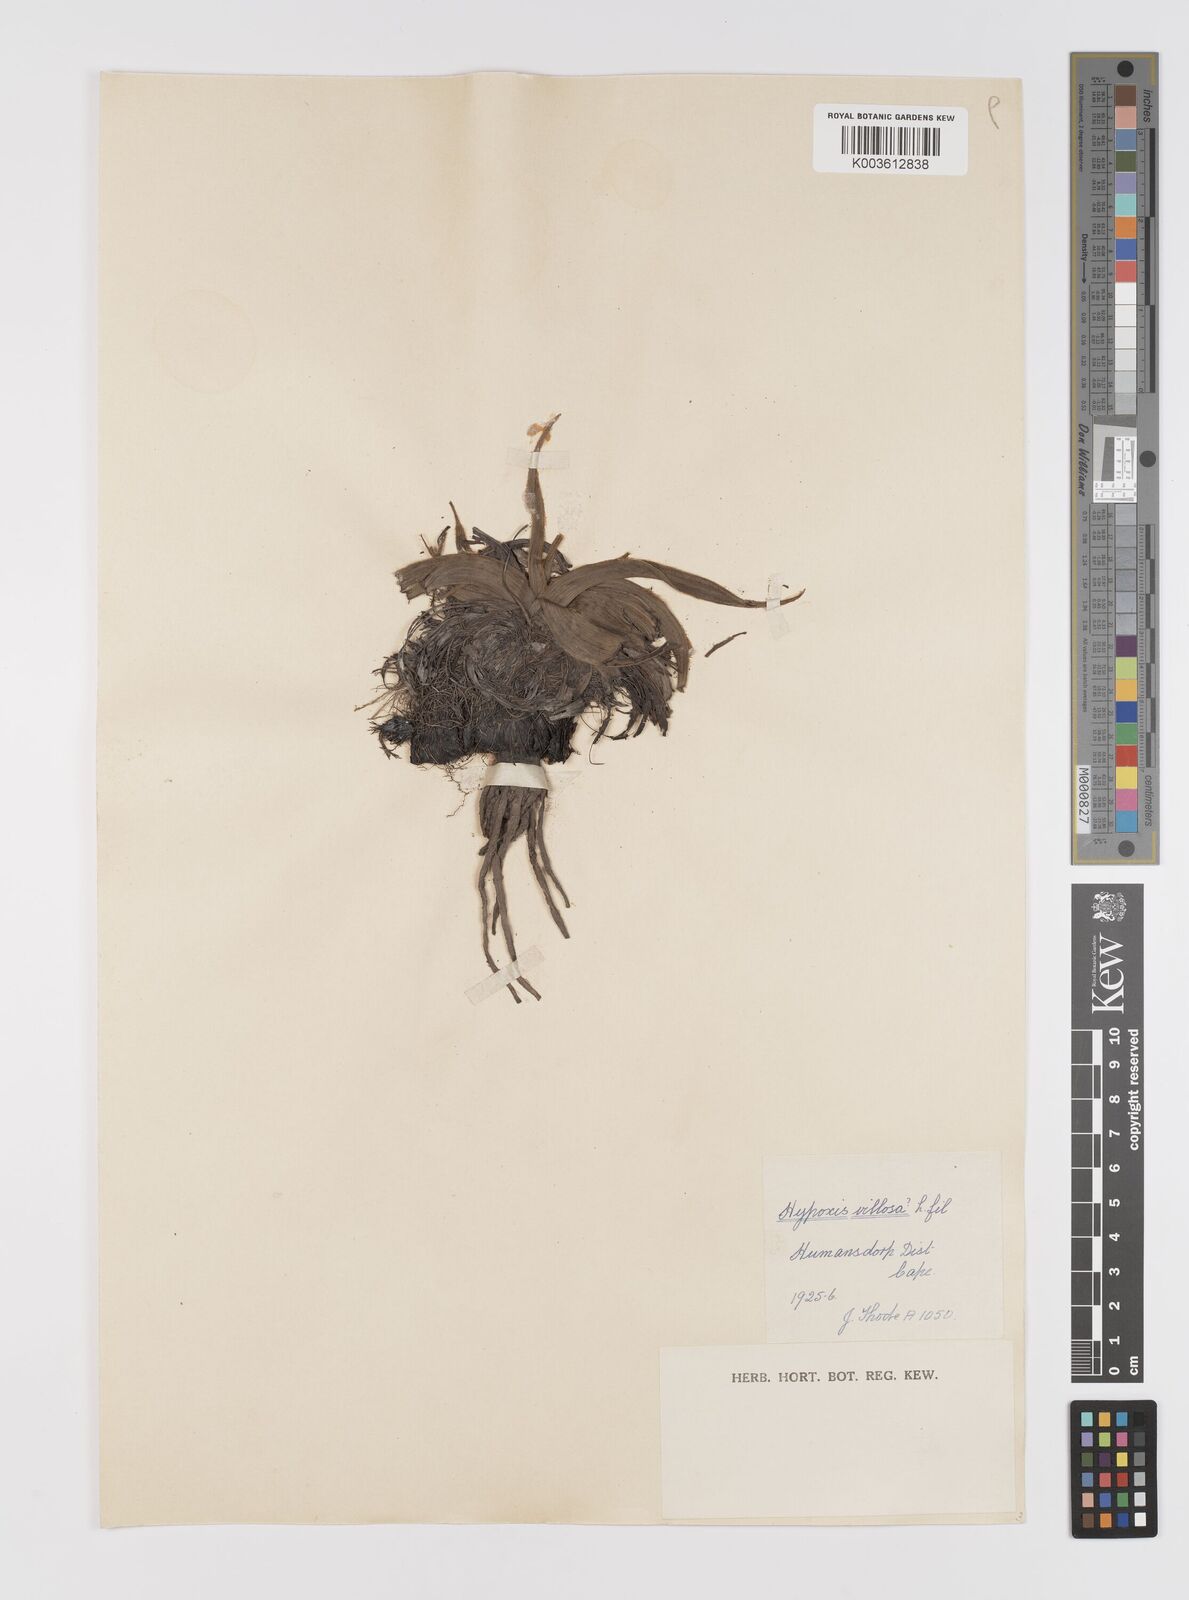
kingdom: Plantae
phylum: Tracheophyta
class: Liliopsida
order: Asparagales
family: Hypoxidaceae
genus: Hypoxis
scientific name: Hypoxis villosa
